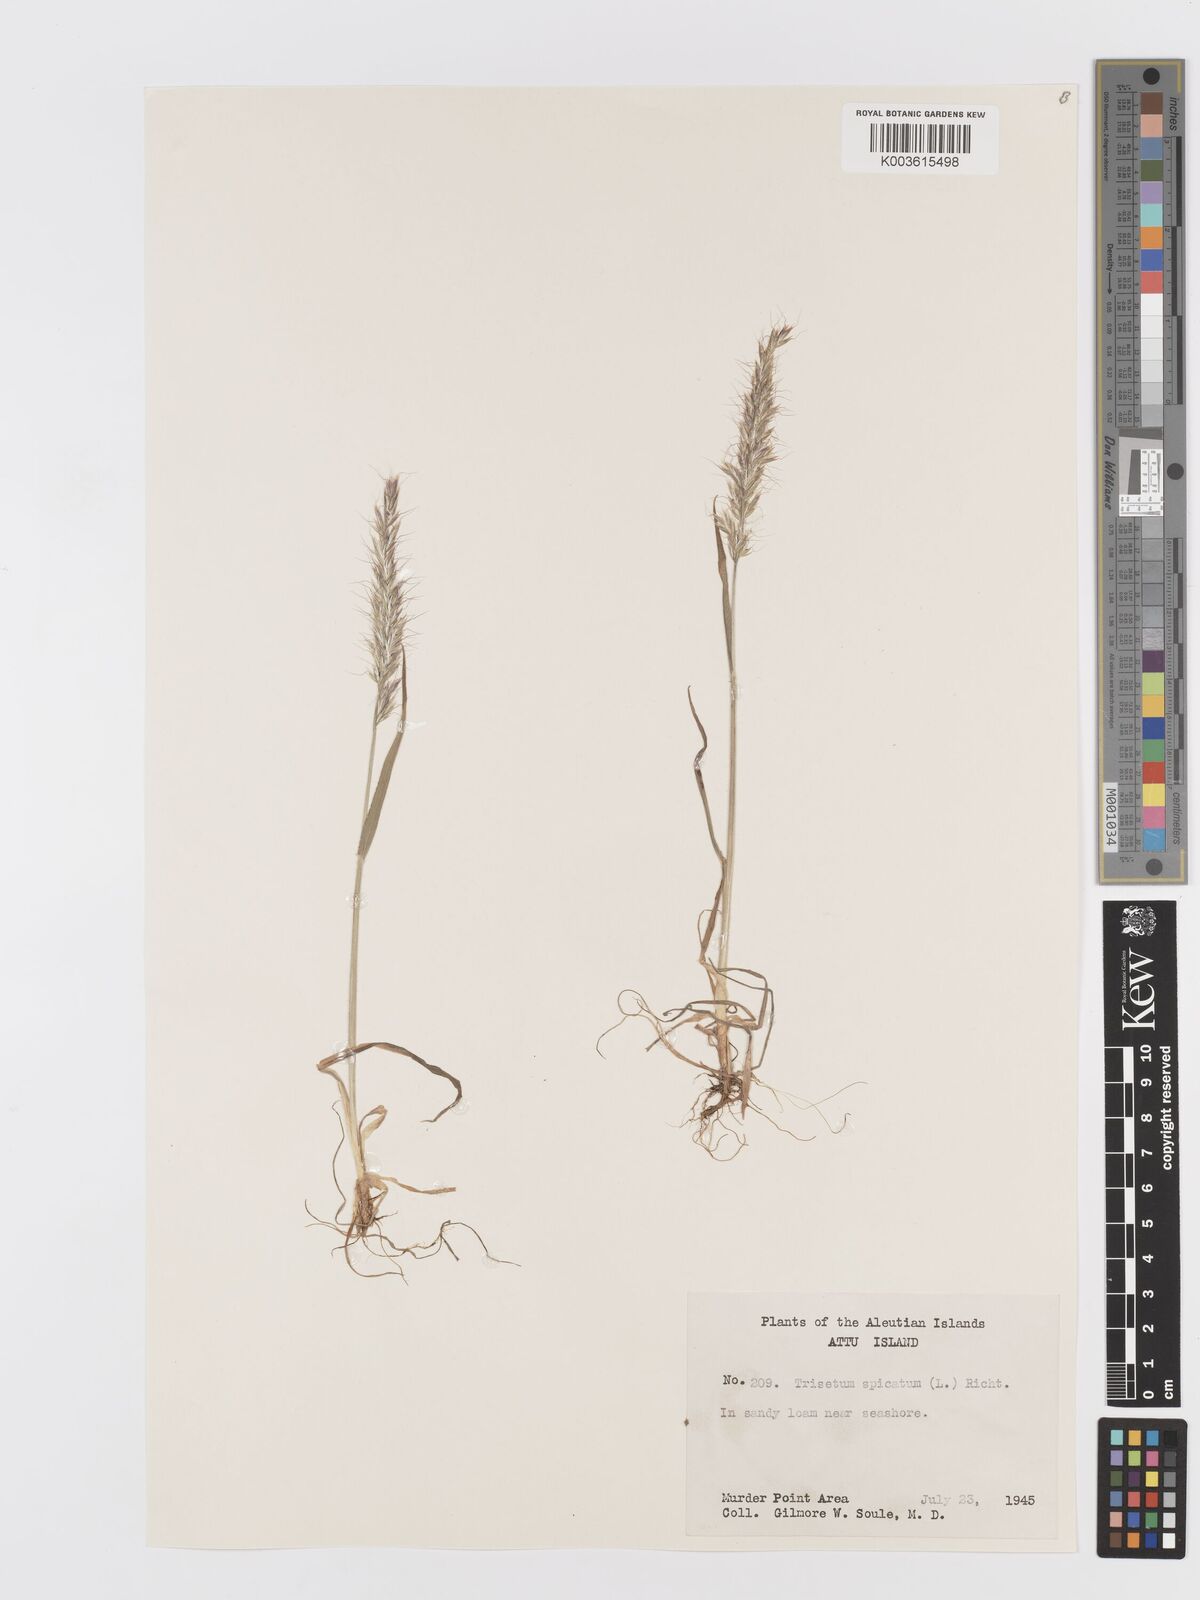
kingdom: Plantae
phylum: Tracheophyta
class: Liliopsida
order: Poales
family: Poaceae
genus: Koeleria
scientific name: Koeleria spicata
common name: Mountain trisetum
